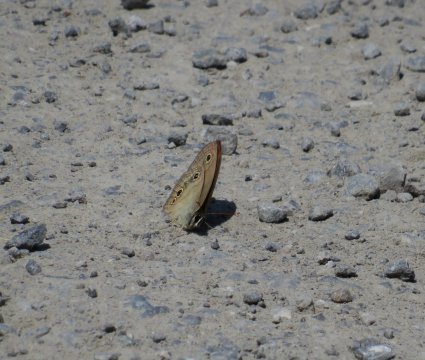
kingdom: Animalia
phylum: Arthropoda
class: Insecta
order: Lepidoptera
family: Nymphalidae
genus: Euptychia
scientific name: Euptychia cymela
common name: Little Wood Satyr
